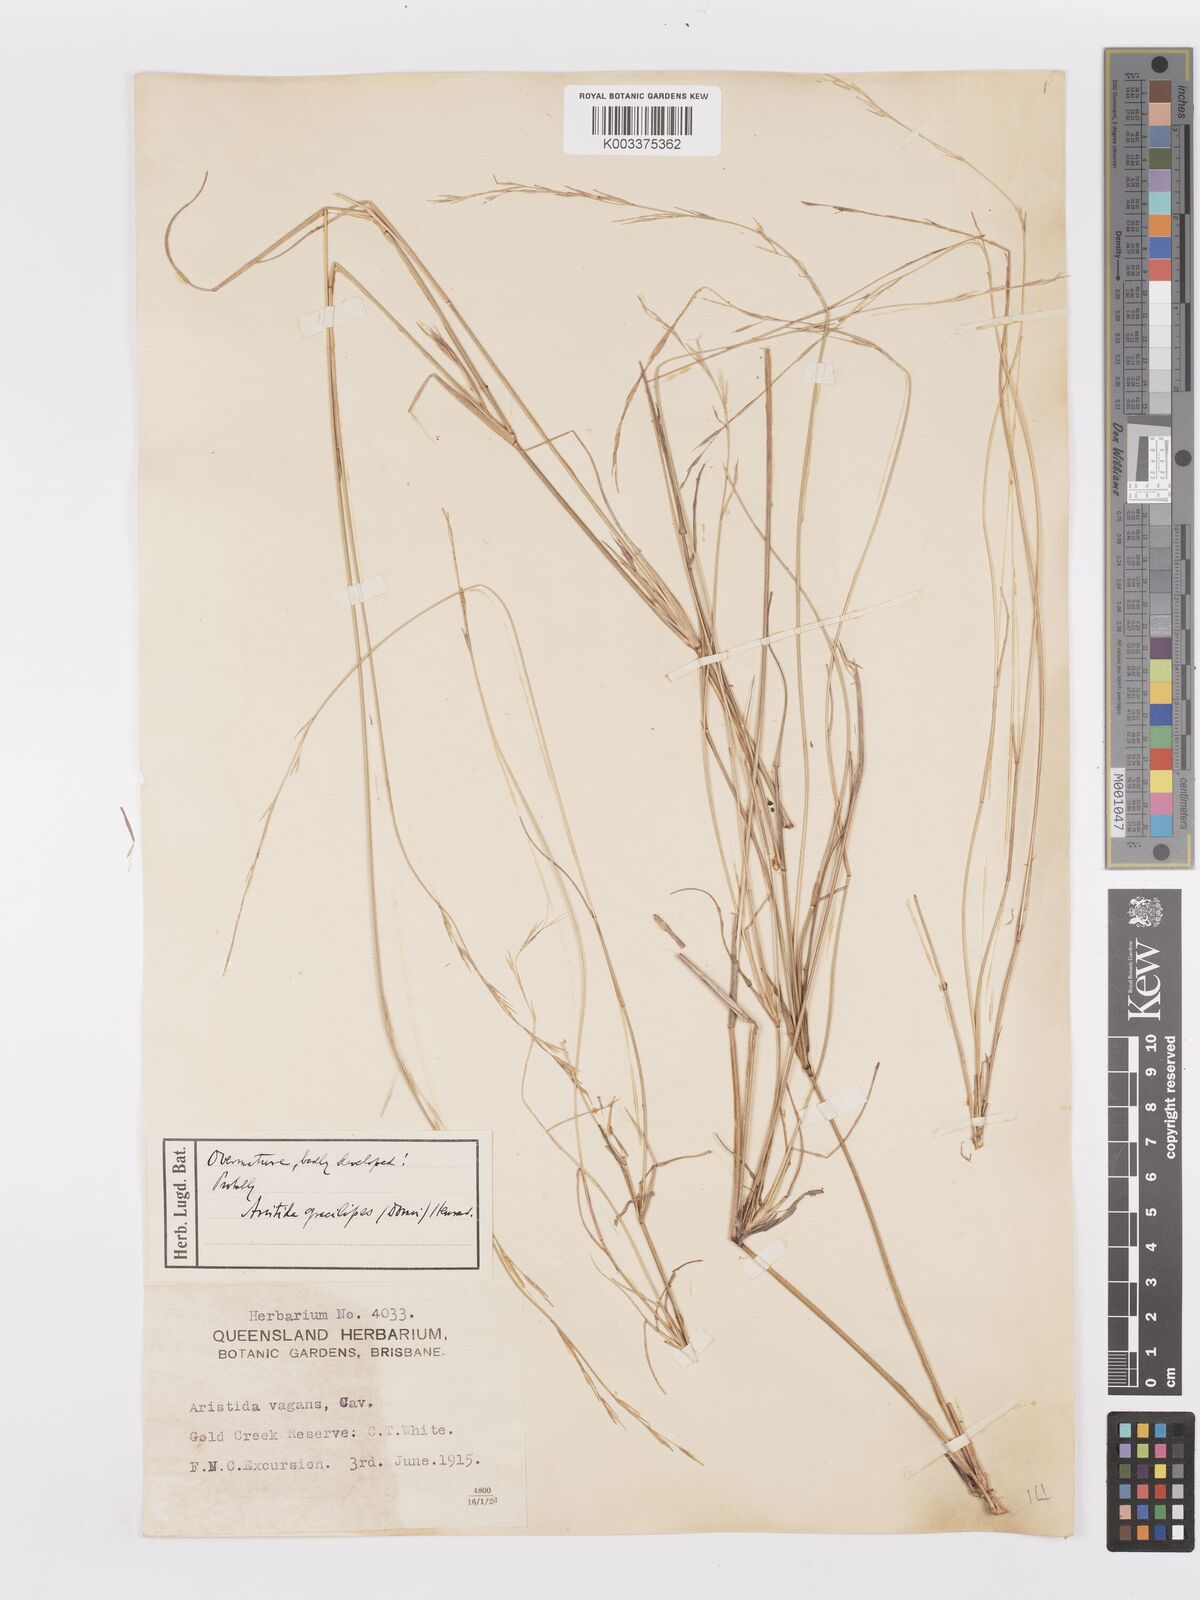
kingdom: Plantae
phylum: Tracheophyta
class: Liliopsida
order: Poales
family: Poaceae
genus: Aristida
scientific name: Aristida gracilipes
